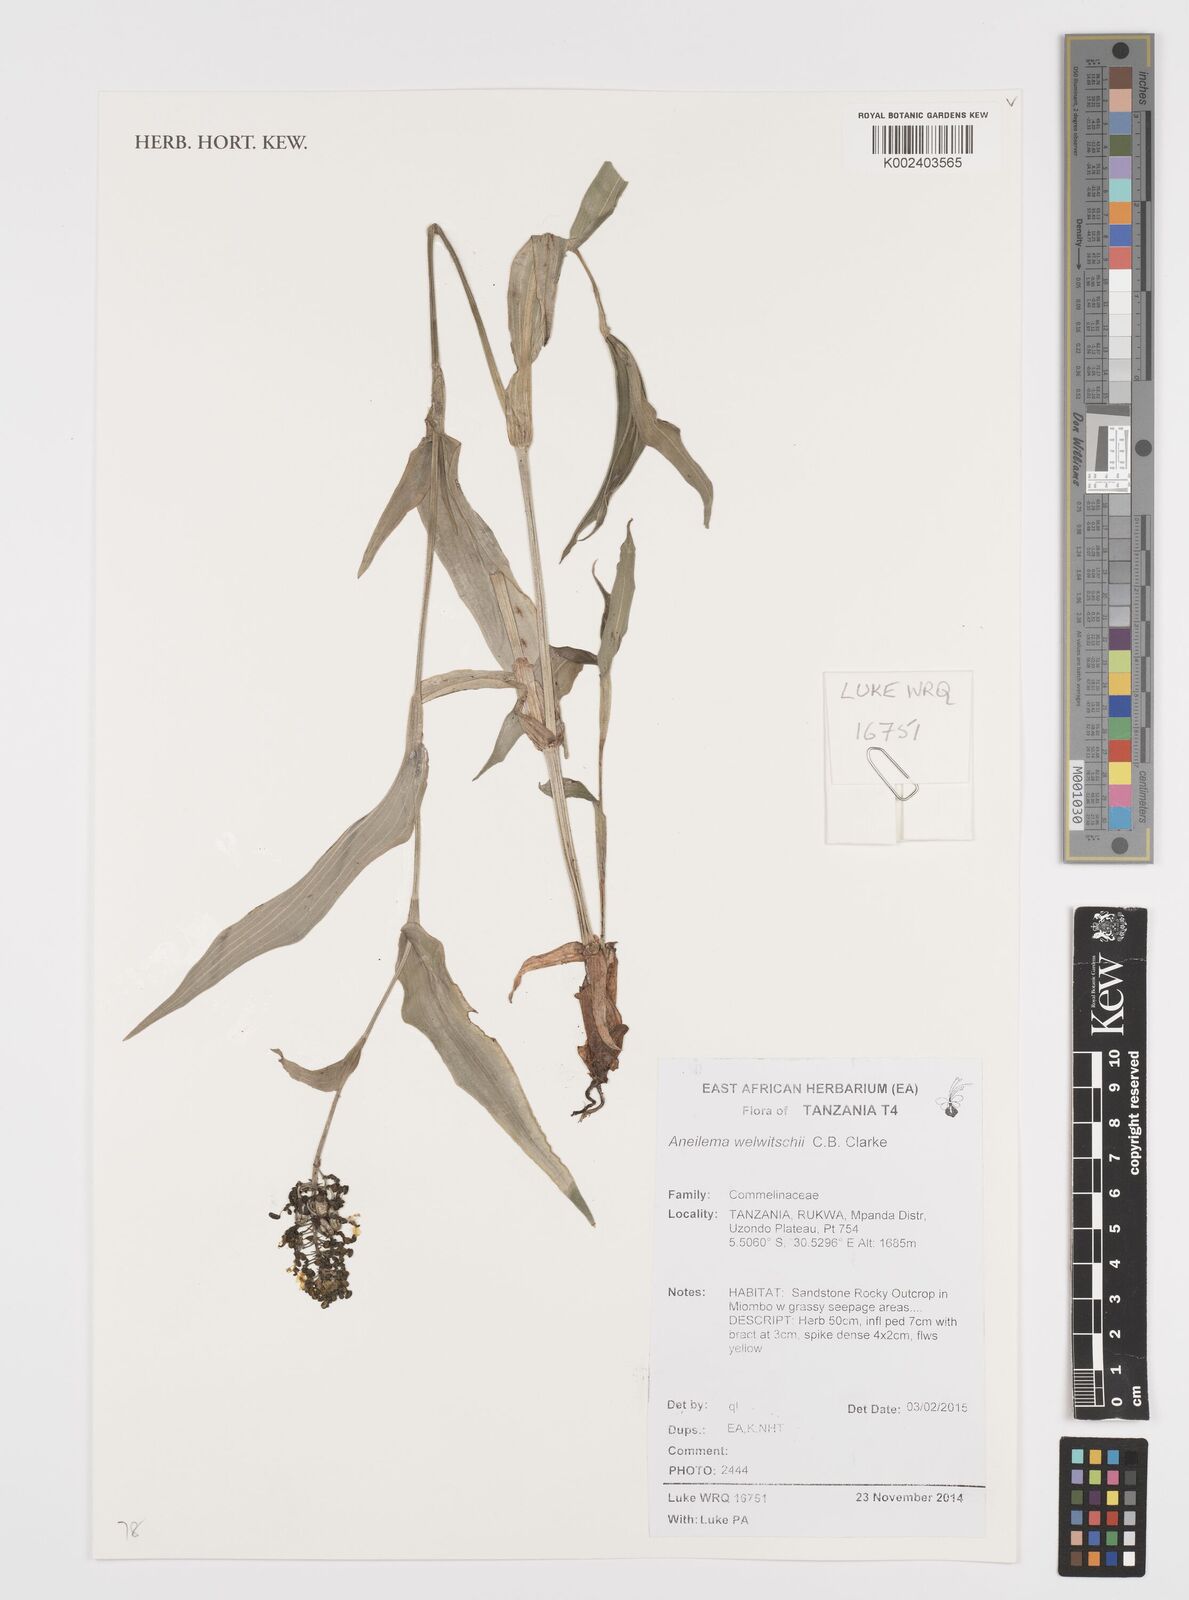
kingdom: Plantae
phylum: Tracheophyta
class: Liliopsida
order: Commelinales
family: Commelinaceae
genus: Aneilema
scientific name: Aneilema welwitschii
